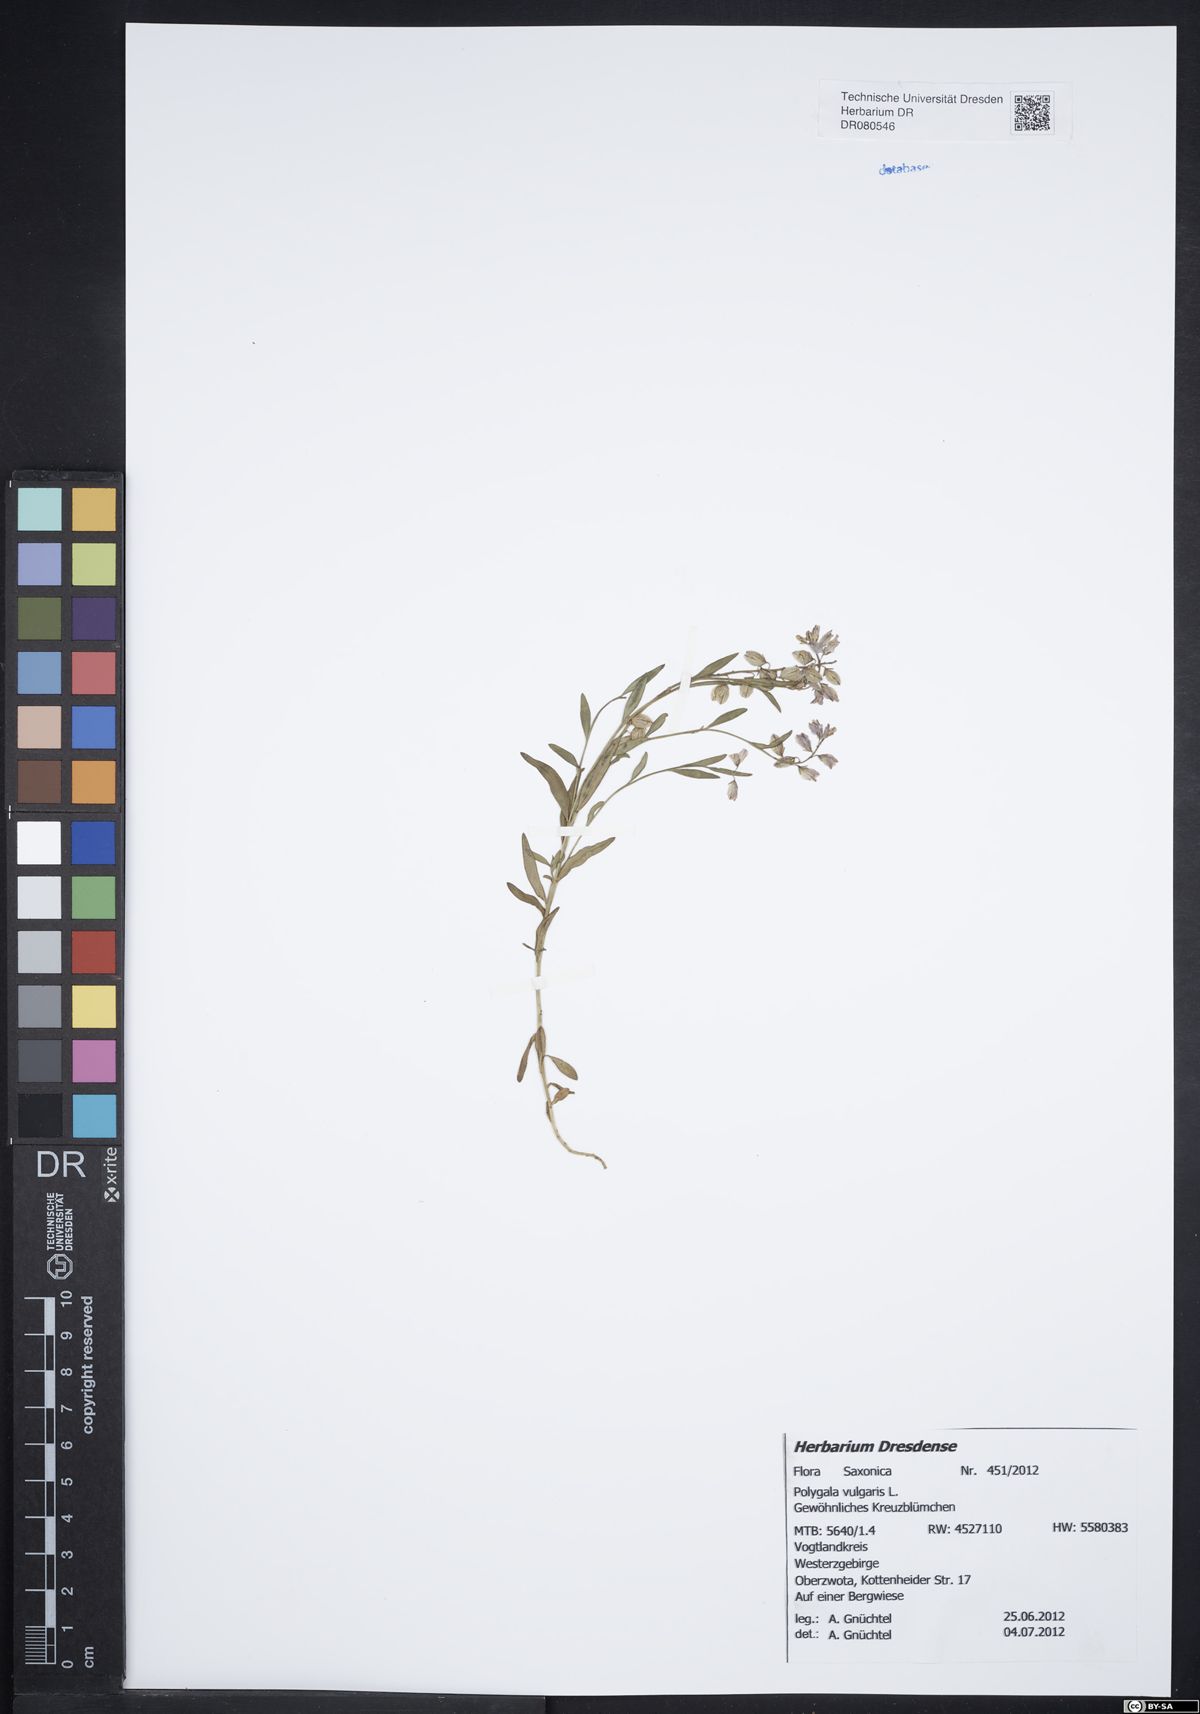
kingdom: Plantae
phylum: Tracheophyta
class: Magnoliopsida
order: Fabales
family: Polygalaceae
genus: Polygala
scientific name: Polygala serpyllifolia
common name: Heath milkwort
